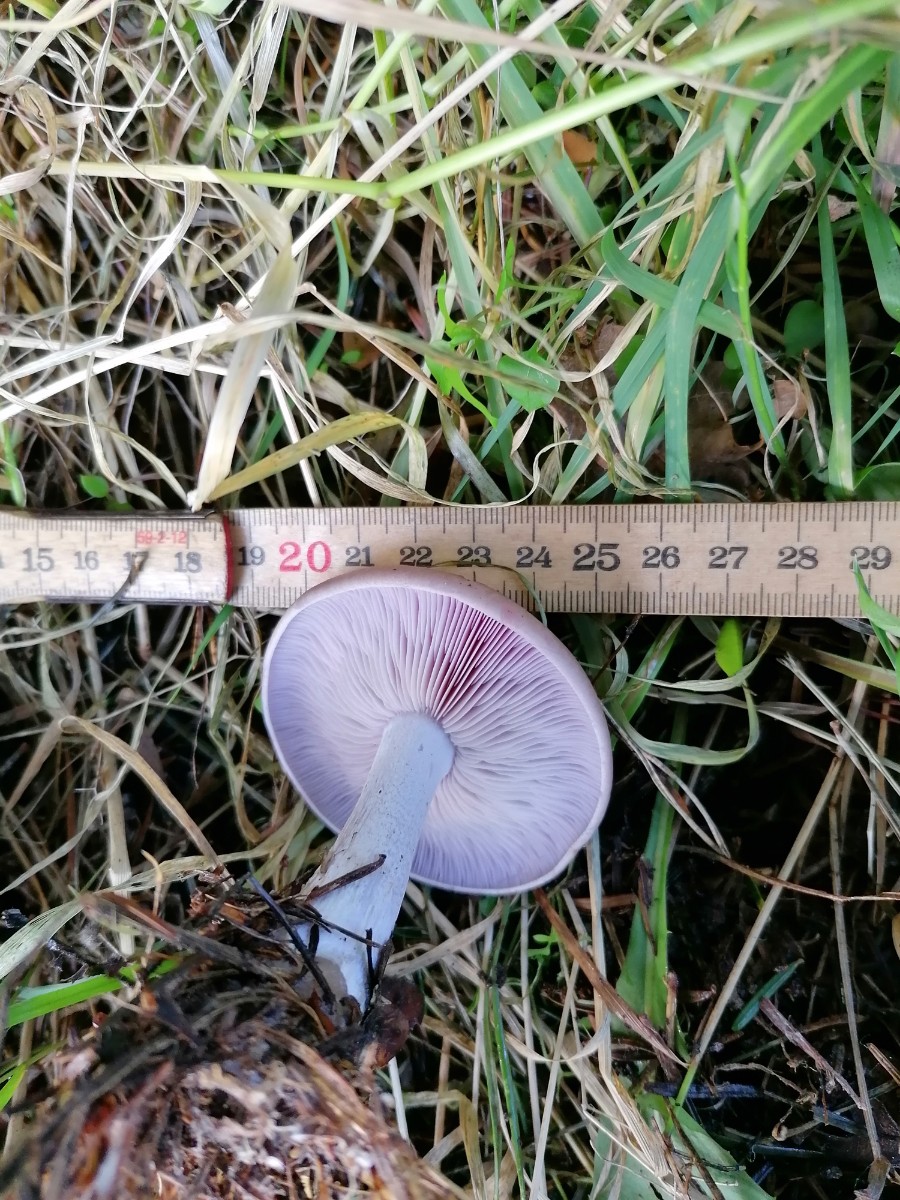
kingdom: Fungi
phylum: Basidiomycota
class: Agaricomycetes
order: Agaricales
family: Tricholomataceae
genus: Lepista
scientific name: Lepista nuda
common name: violet hekseringshat
